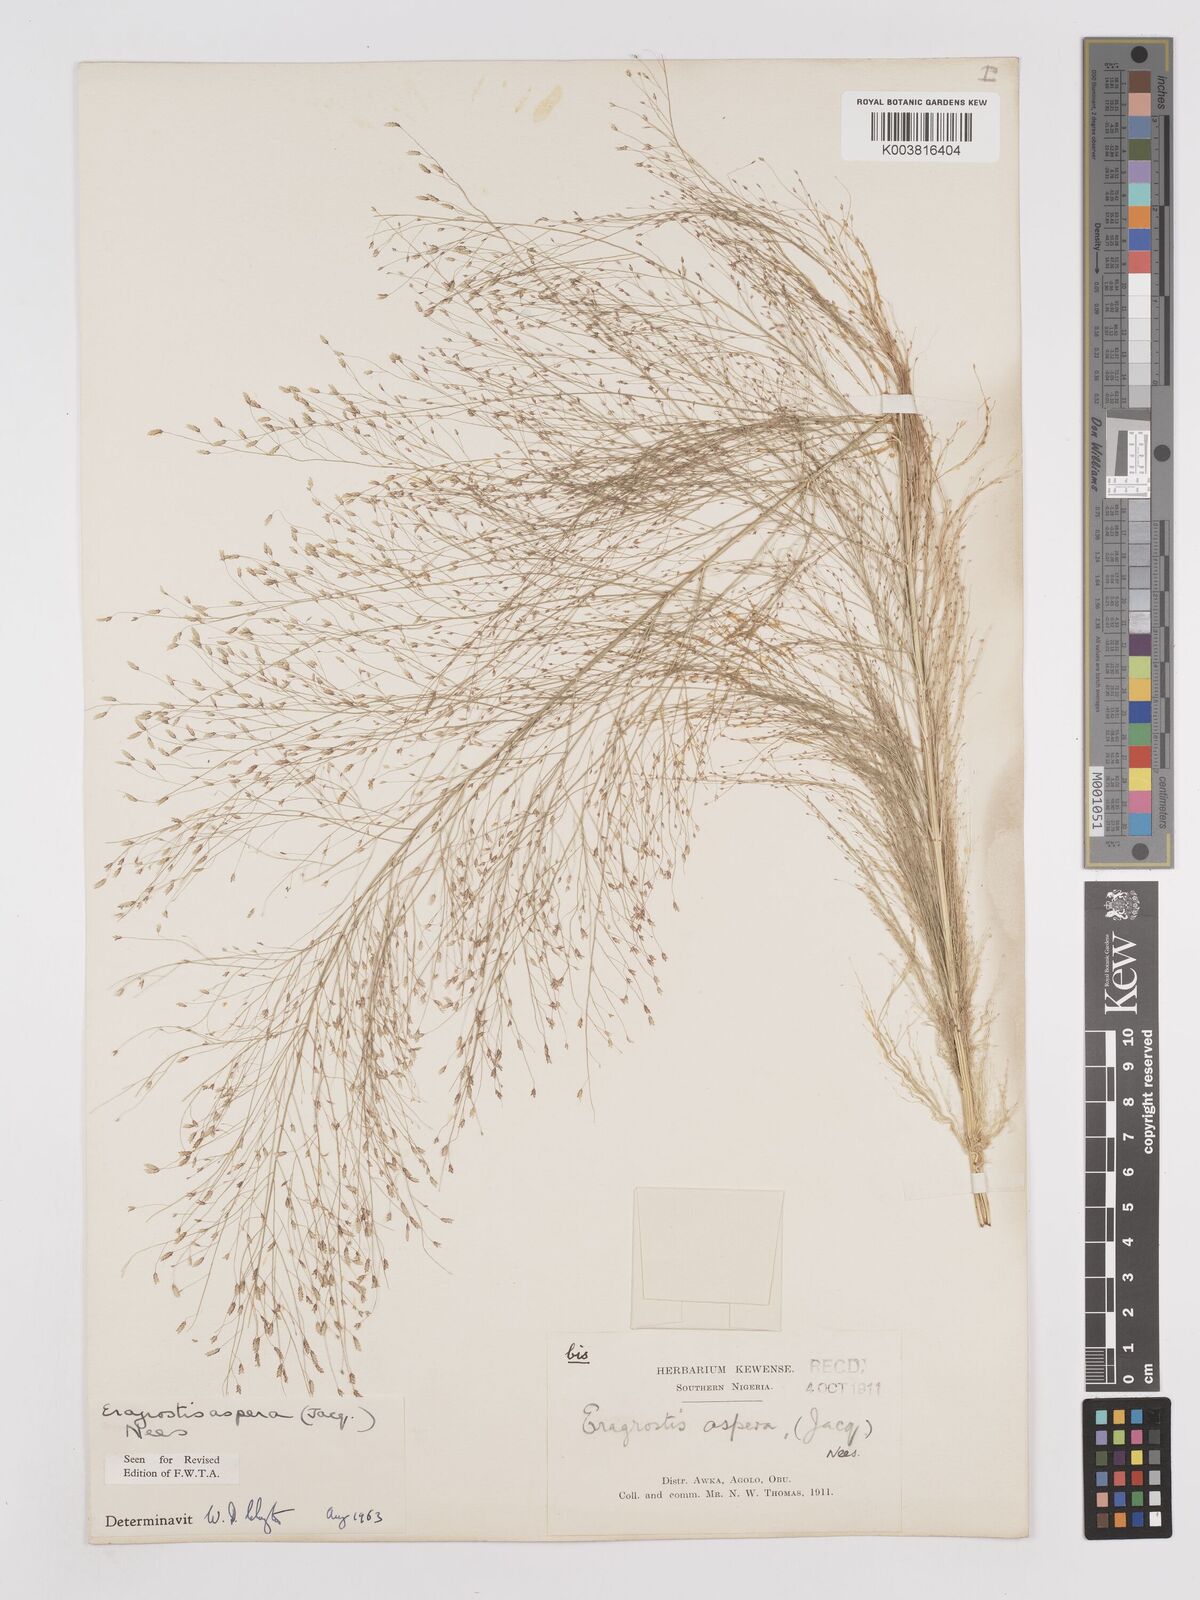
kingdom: Plantae
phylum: Tracheophyta
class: Liliopsida
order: Poales
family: Poaceae
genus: Eragrostis
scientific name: Eragrostis aspera
